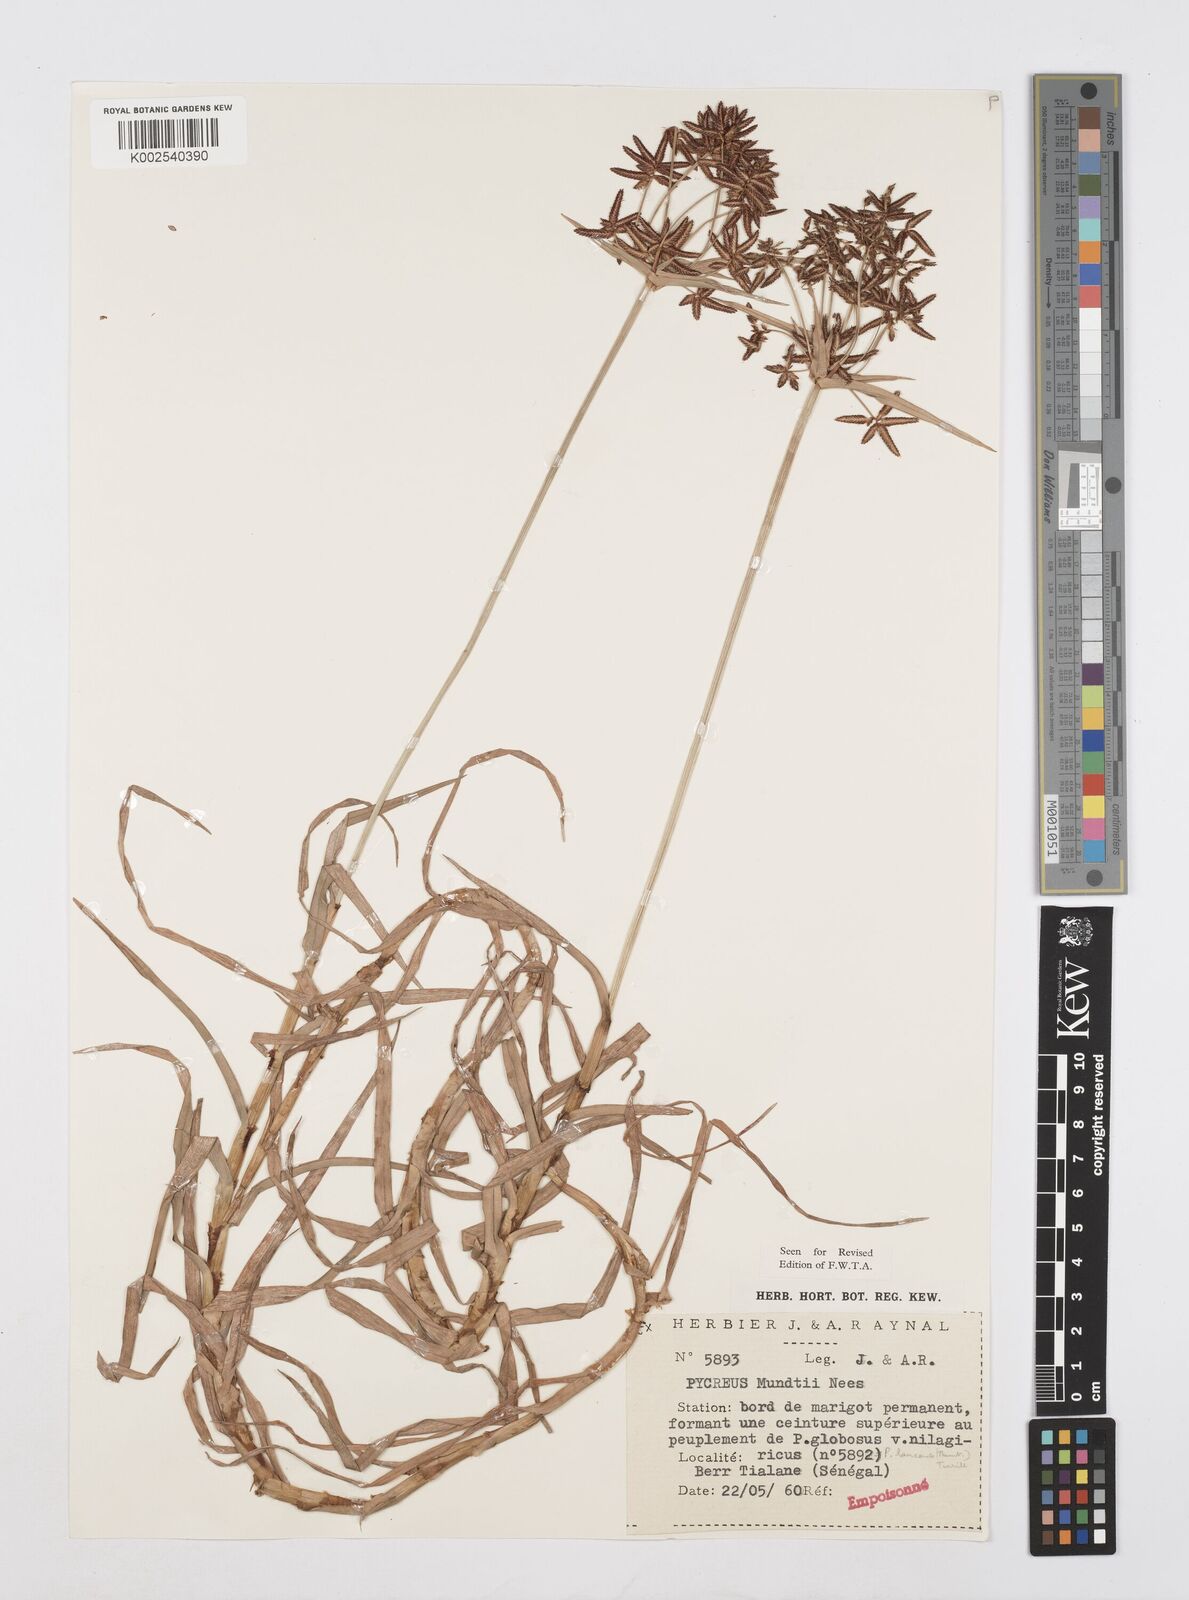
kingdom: Plantae
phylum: Tracheophyta
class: Liliopsida
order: Poales
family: Cyperaceae
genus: Cyperus
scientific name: Cyperus mundii
